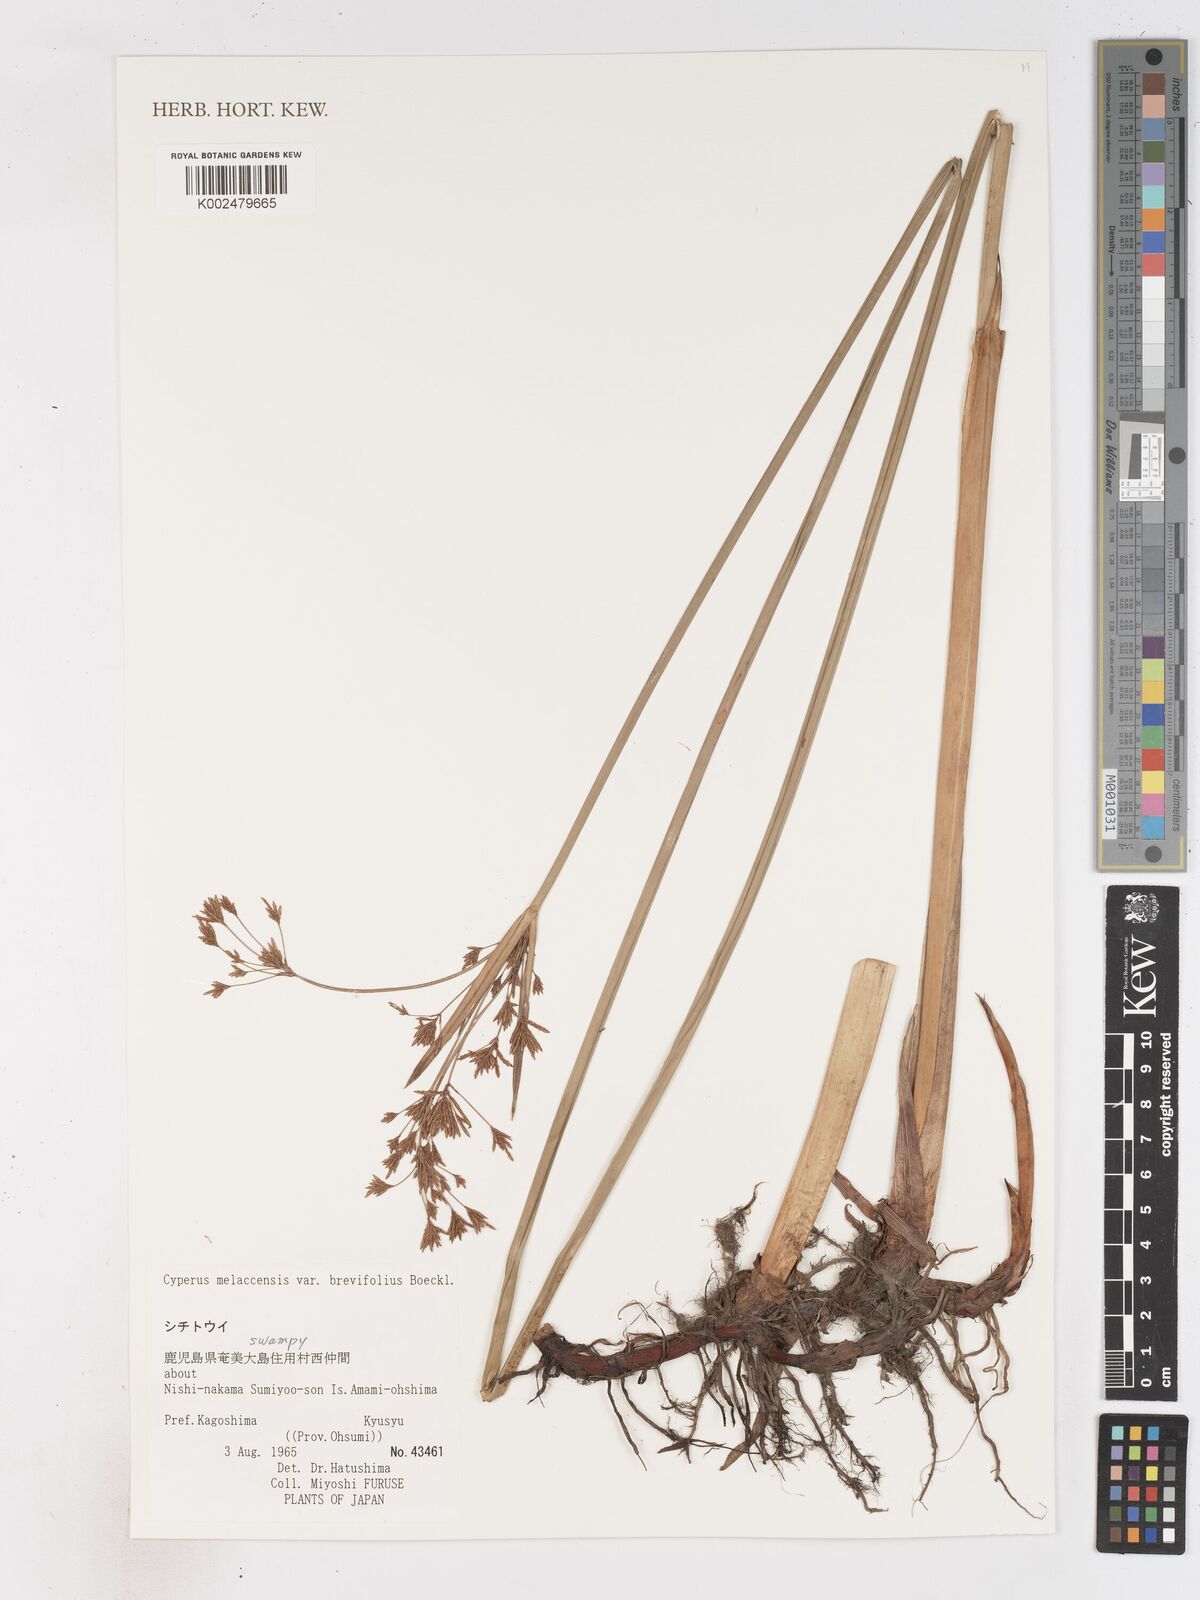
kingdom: Plantae
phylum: Tracheophyta
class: Liliopsida
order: Poales
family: Cyperaceae
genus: Cyperus
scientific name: Cyperus malaccensis
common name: Shichito matgrass
